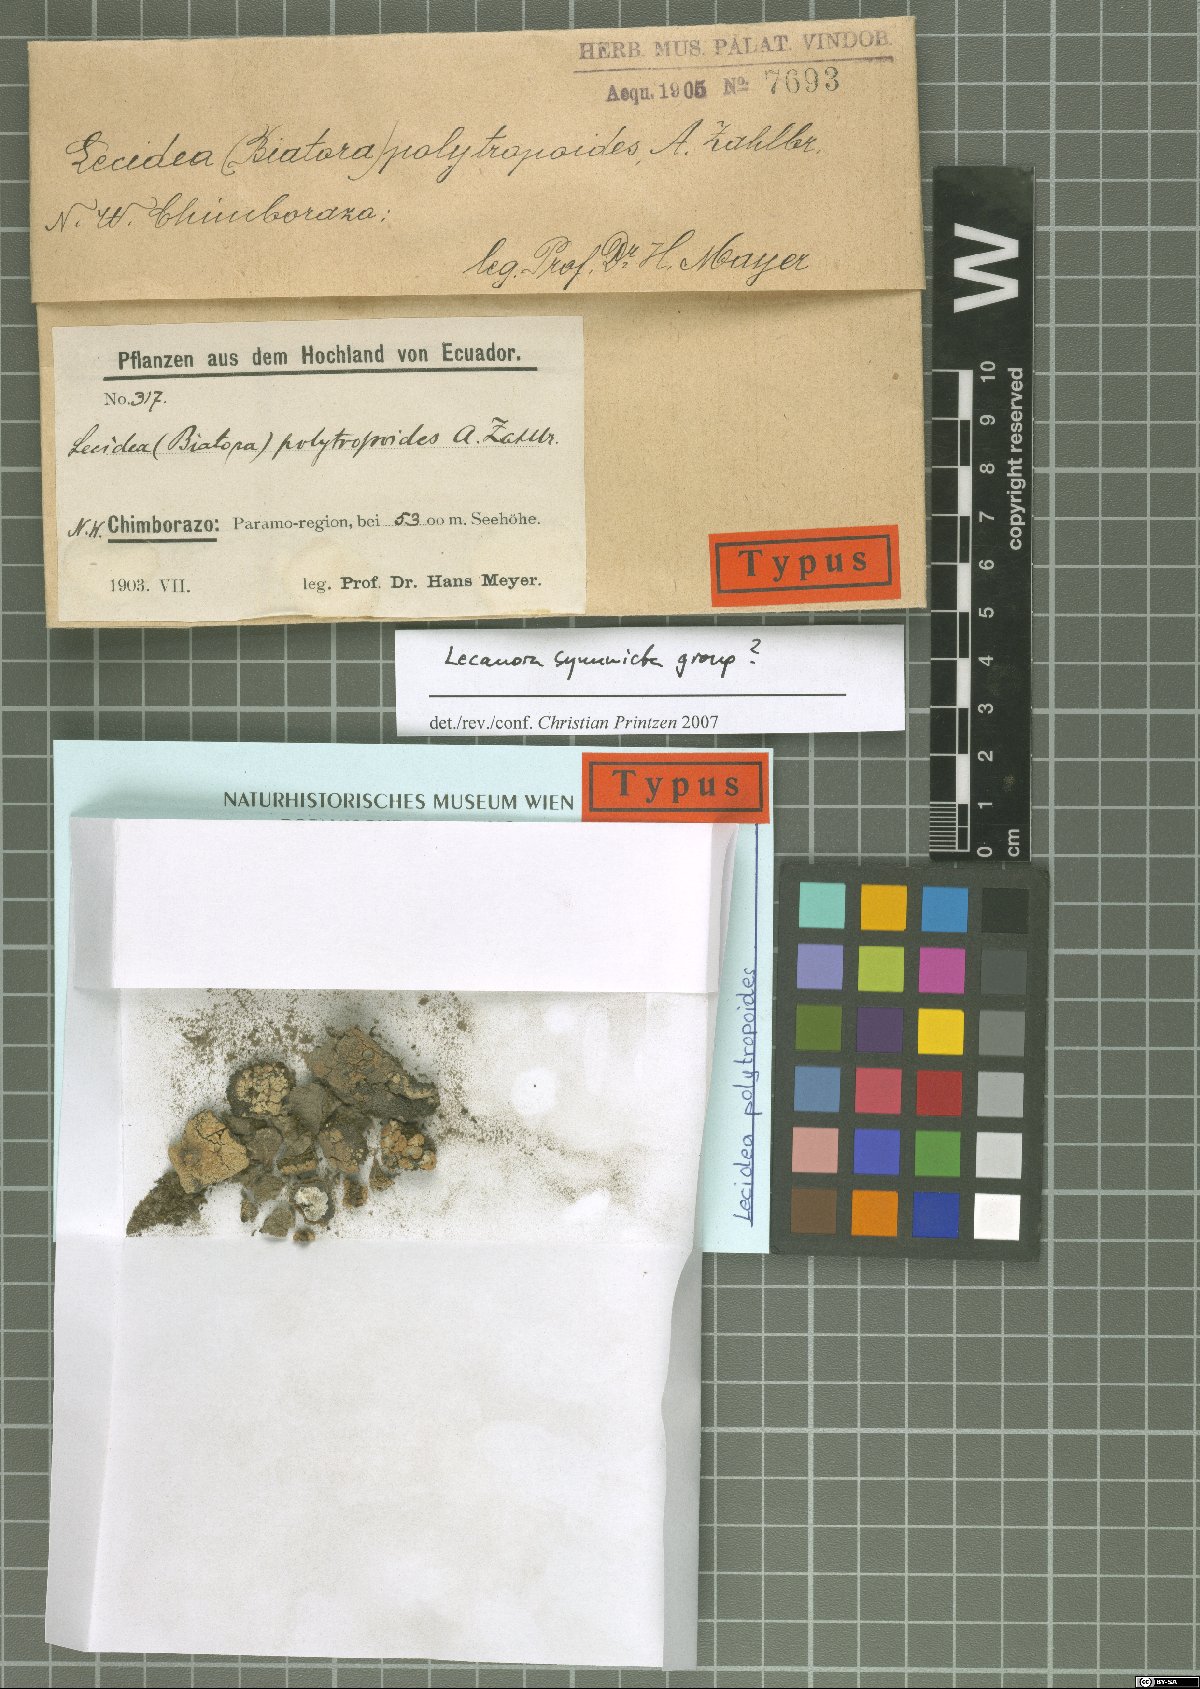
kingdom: Fungi
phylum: Ascomycota
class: Lecanoromycetes
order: Lecideales
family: Lecideaceae
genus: Lecidea
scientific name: Lecidea
